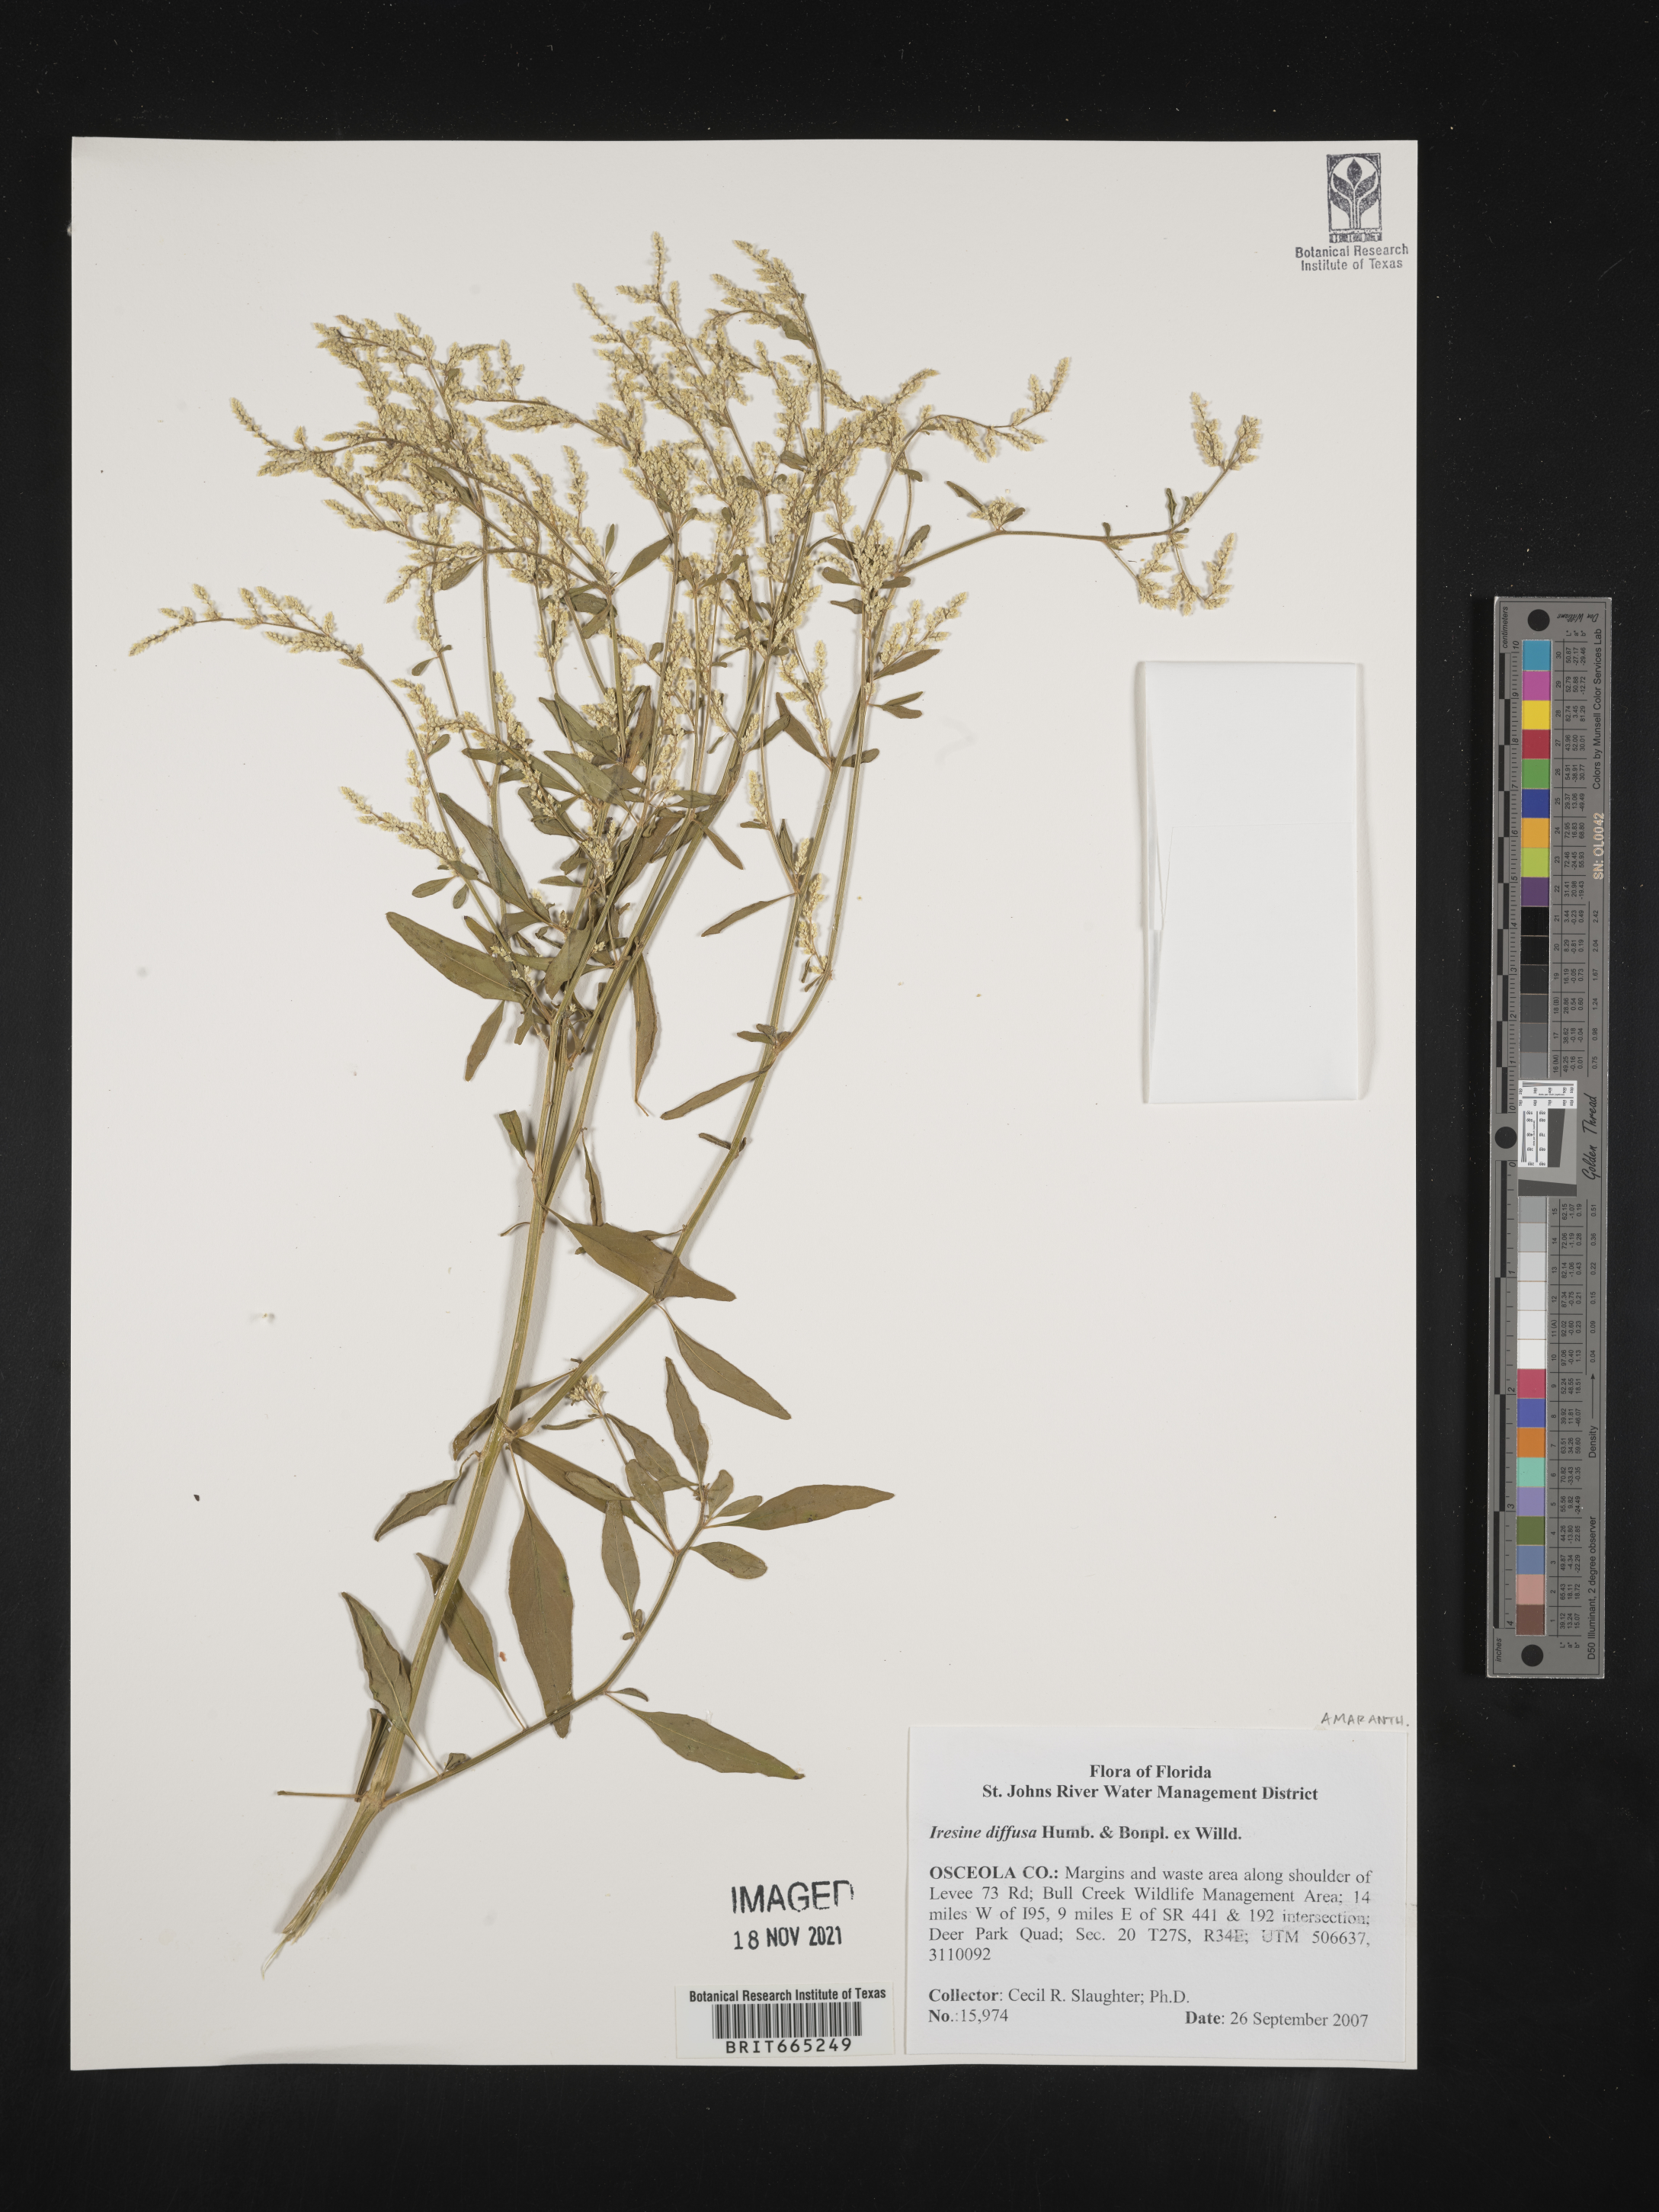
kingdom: Plantae
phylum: Tracheophyta
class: Magnoliopsida
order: Caryophyllales
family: Amaranthaceae
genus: Iresine
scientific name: Iresine
